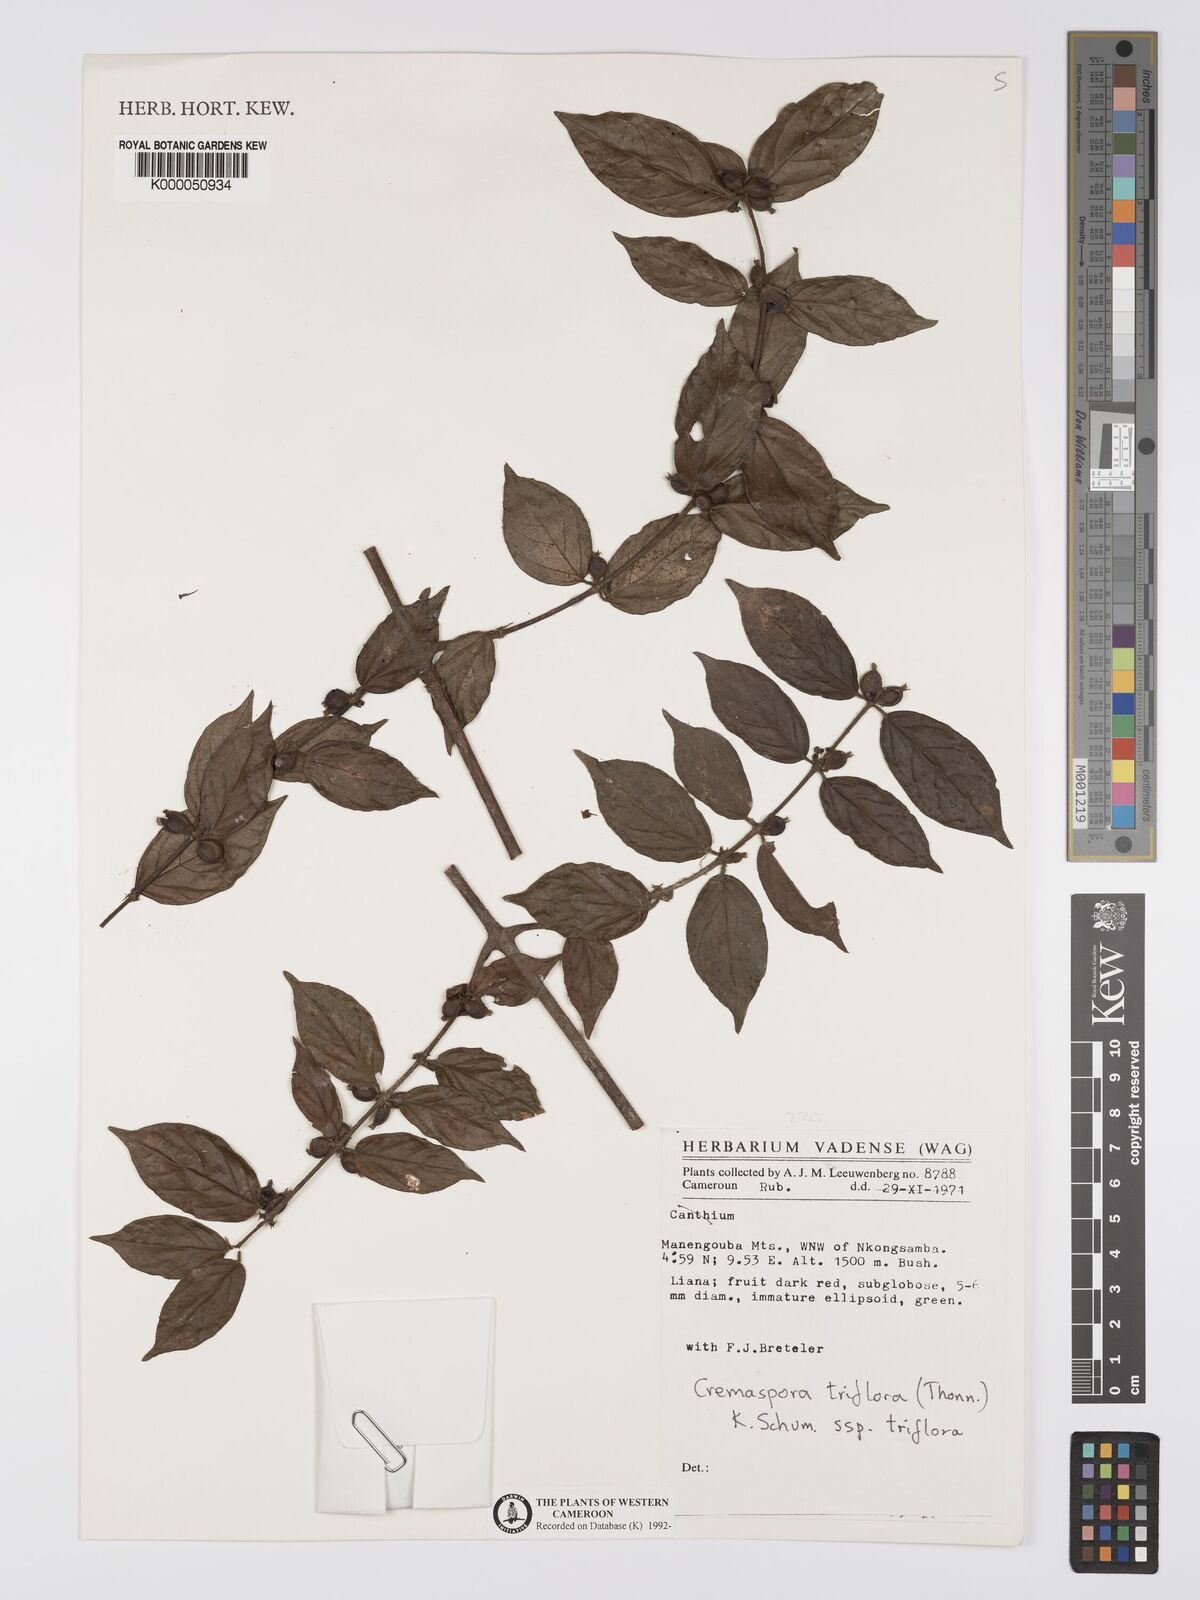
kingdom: Plantae
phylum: Tracheophyta
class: Magnoliopsida
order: Gentianales
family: Rubiaceae
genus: Cremaspora
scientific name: Cremaspora triflora
